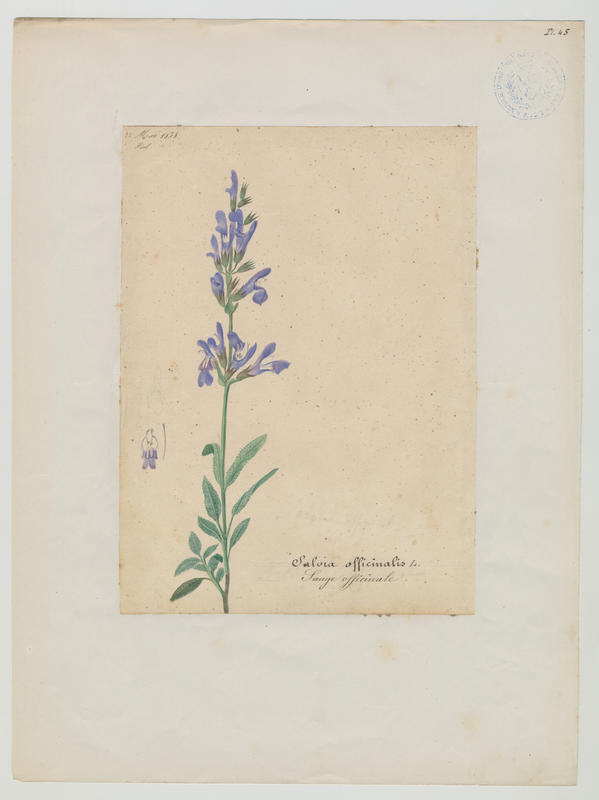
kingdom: Plantae
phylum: Tracheophyta
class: Magnoliopsida
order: Lamiales
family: Lamiaceae
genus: Salvia
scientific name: Salvia officinalis
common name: Sage
